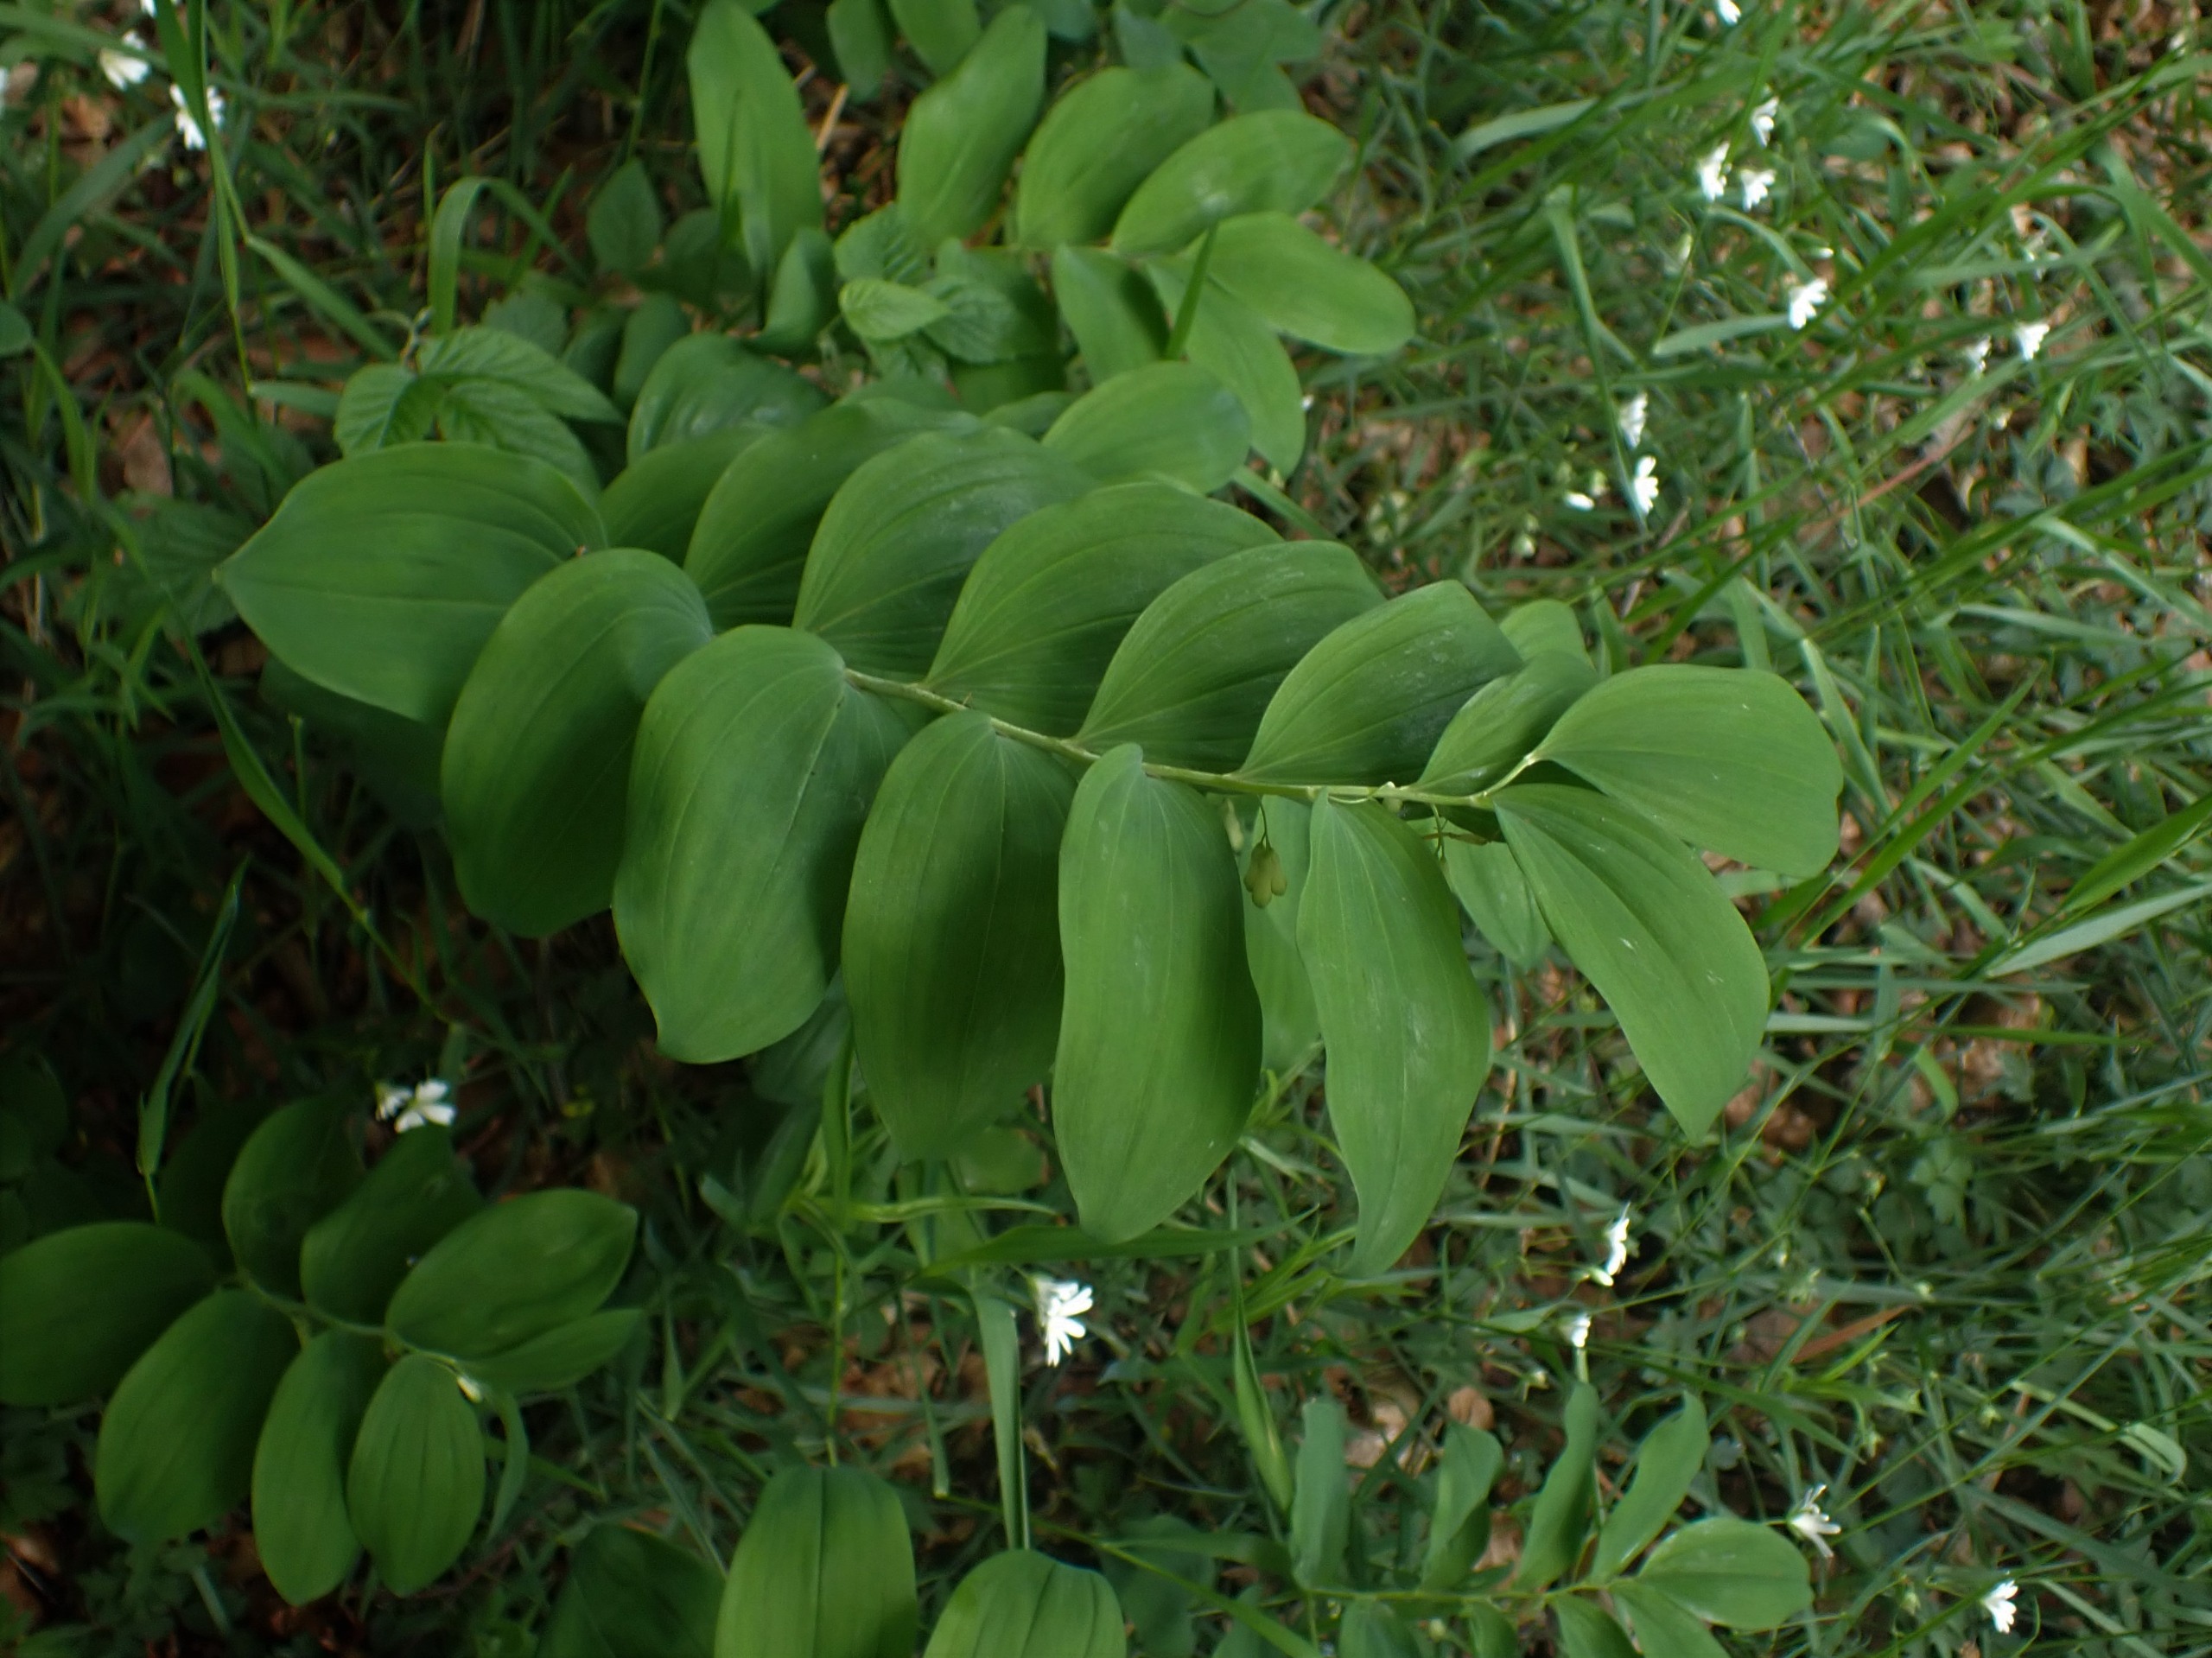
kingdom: Plantae
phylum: Tracheophyta
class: Liliopsida
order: Asparagales
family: Asparagaceae
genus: Polygonatum
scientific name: Polygonatum multiflorum
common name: Stor konval
